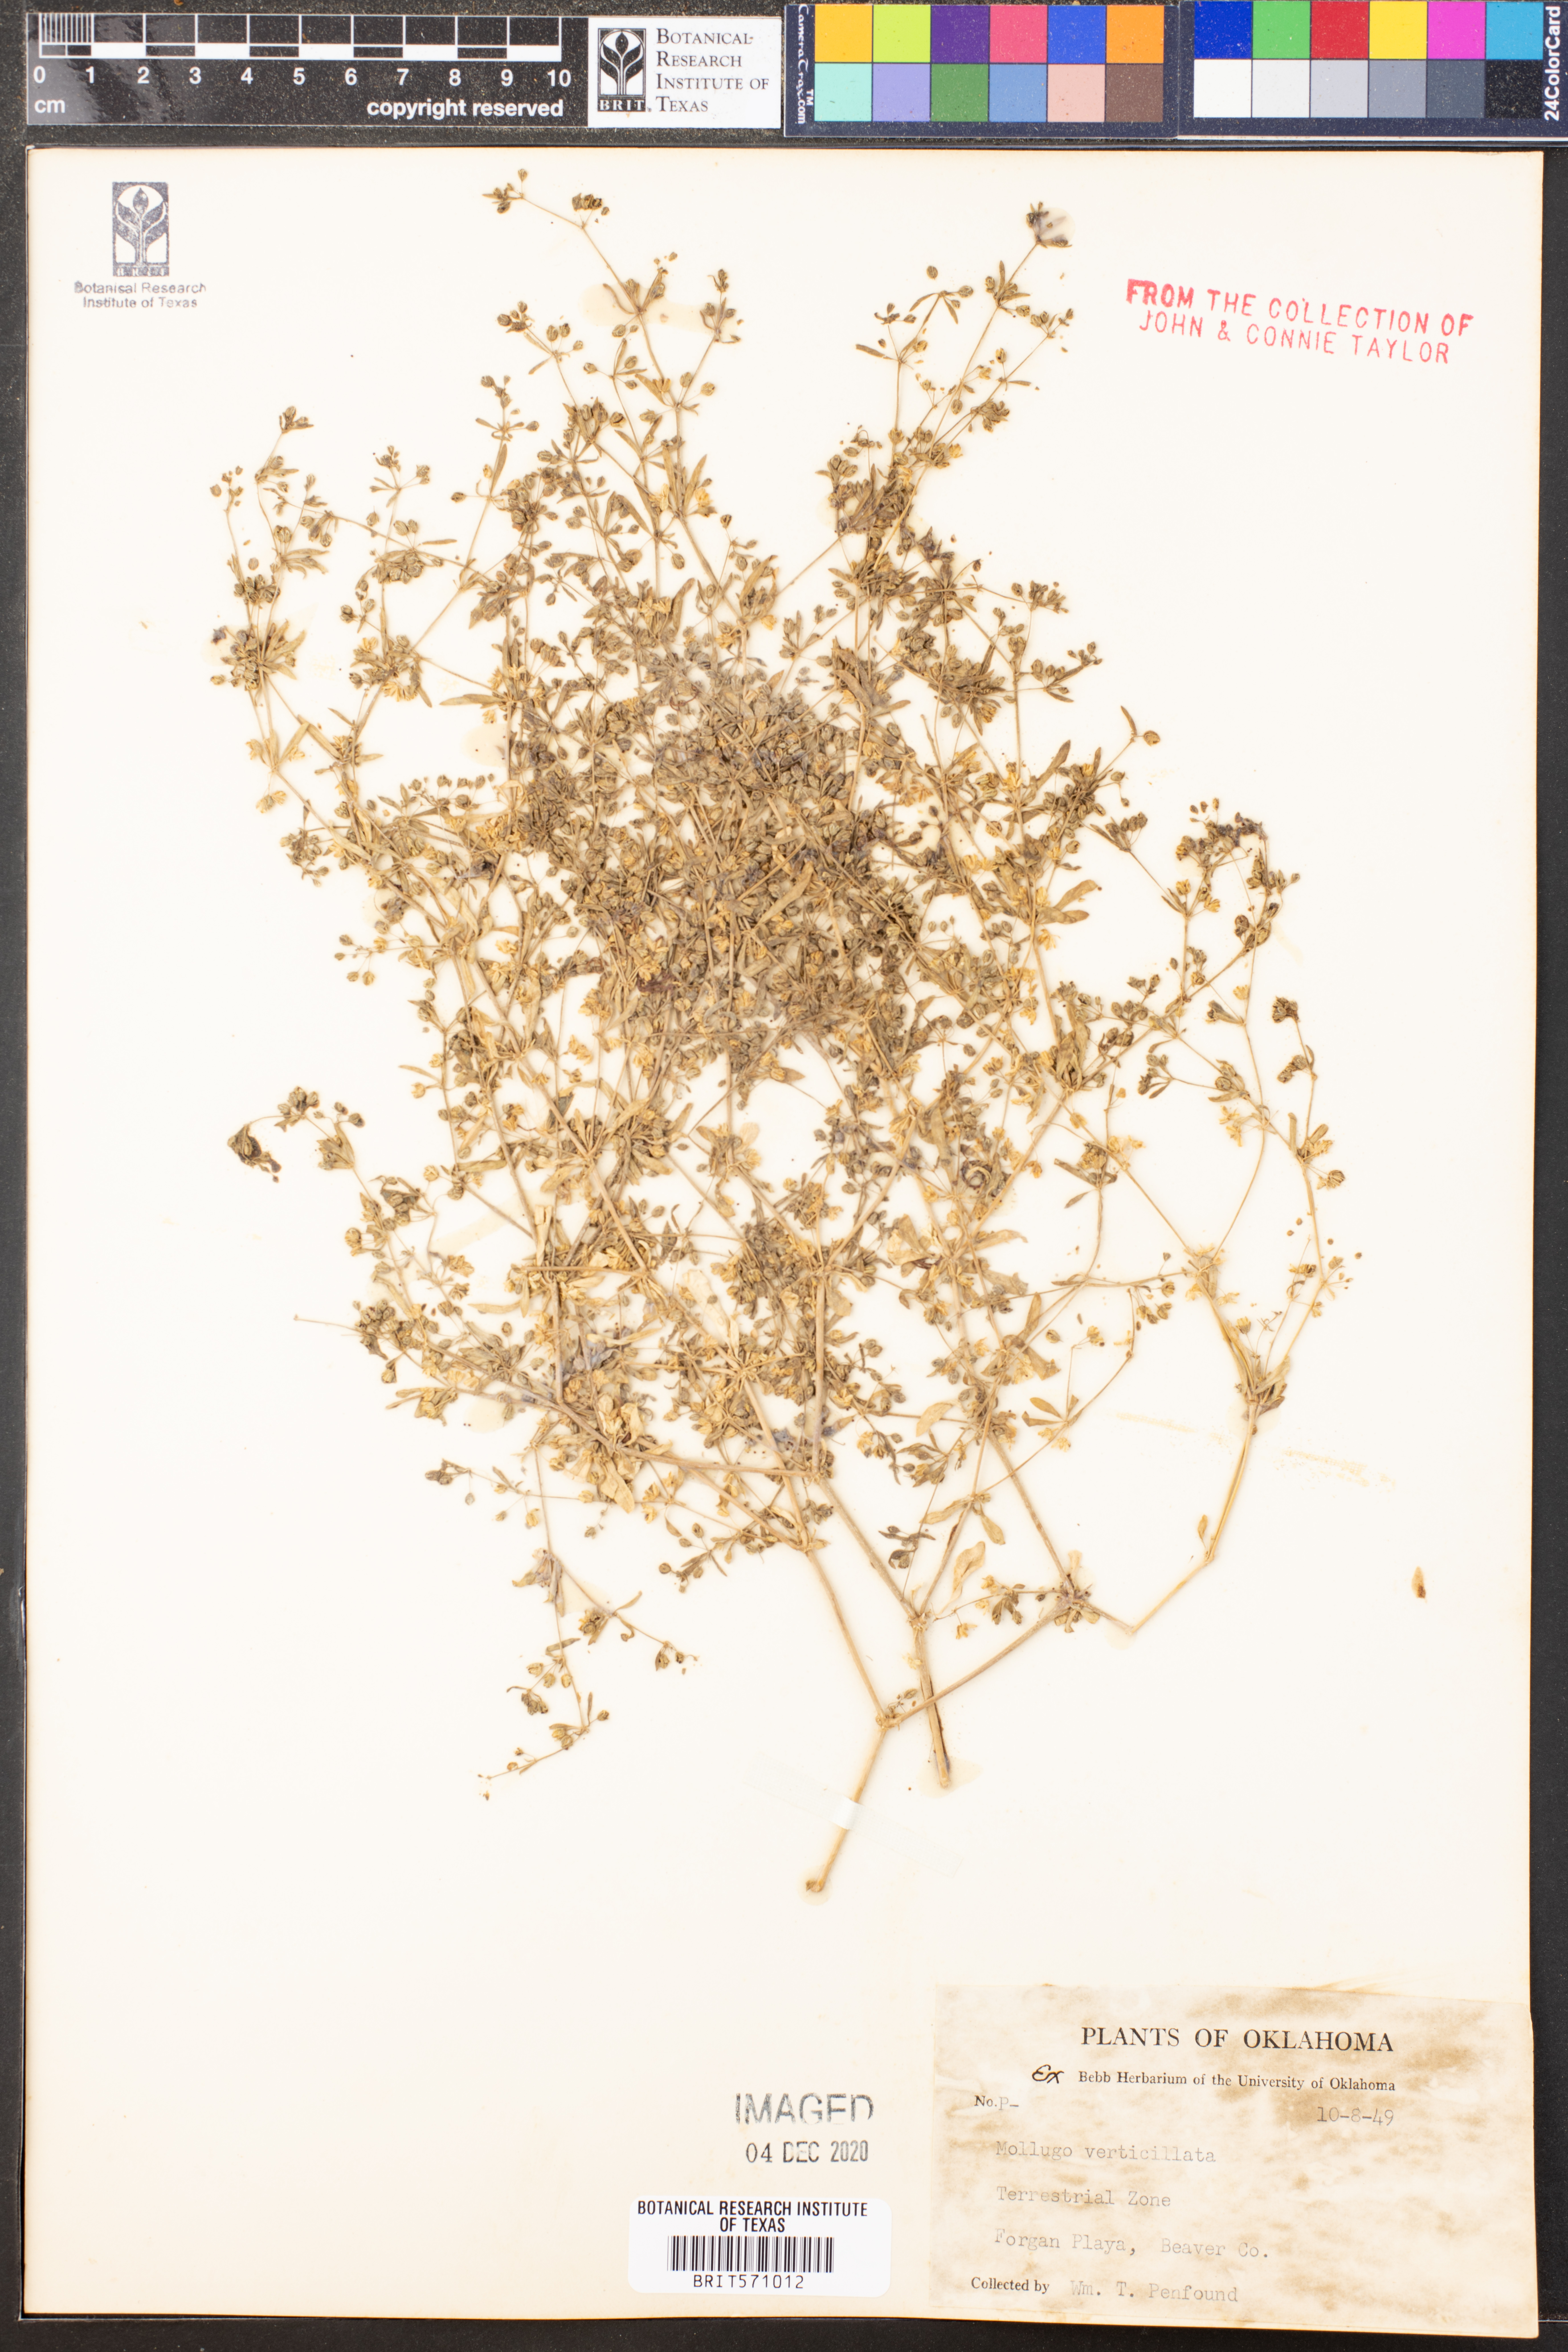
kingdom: Plantae
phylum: Tracheophyta
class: Magnoliopsida
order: Caryophyllales
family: Molluginaceae
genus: Mollugo
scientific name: Mollugo verticillata
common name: Green carpetweed
